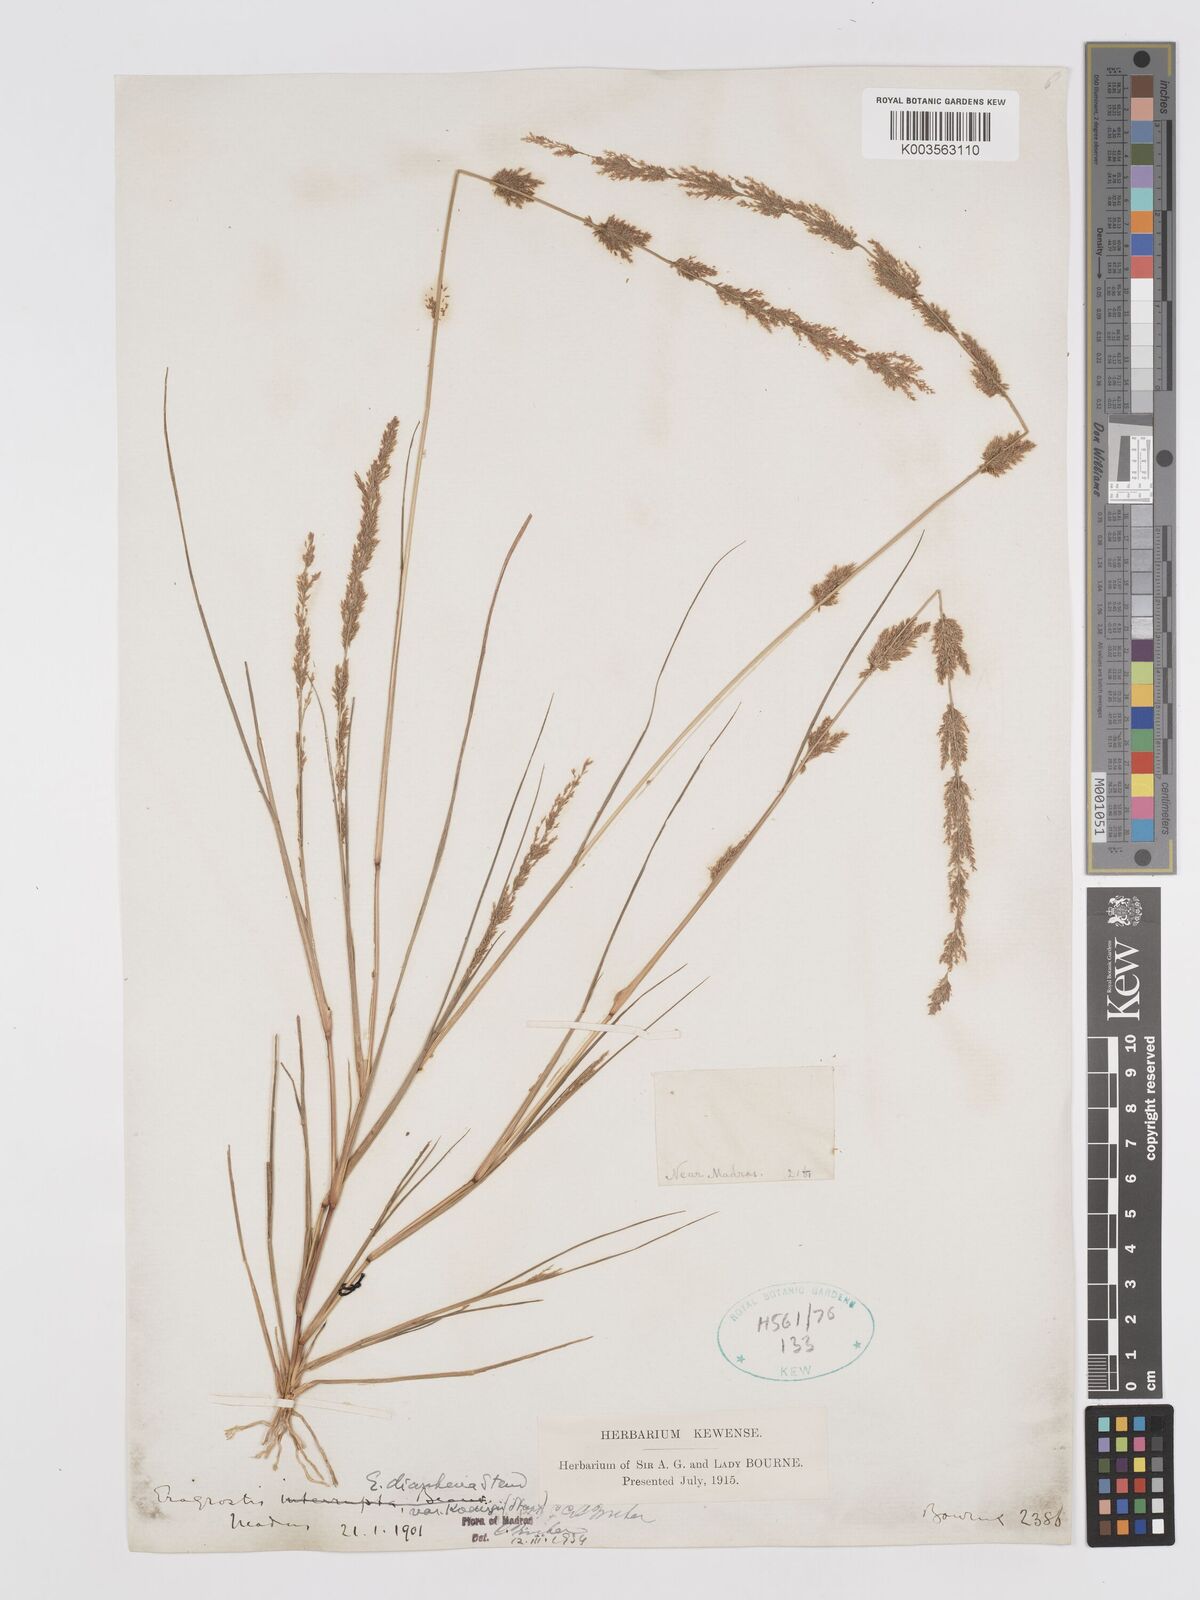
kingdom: Plantae
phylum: Tracheophyta
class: Liliopsida
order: Poales
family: Poaceae
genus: Eragrostis
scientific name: Eragrostis japonica
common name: Pond lovegrass
